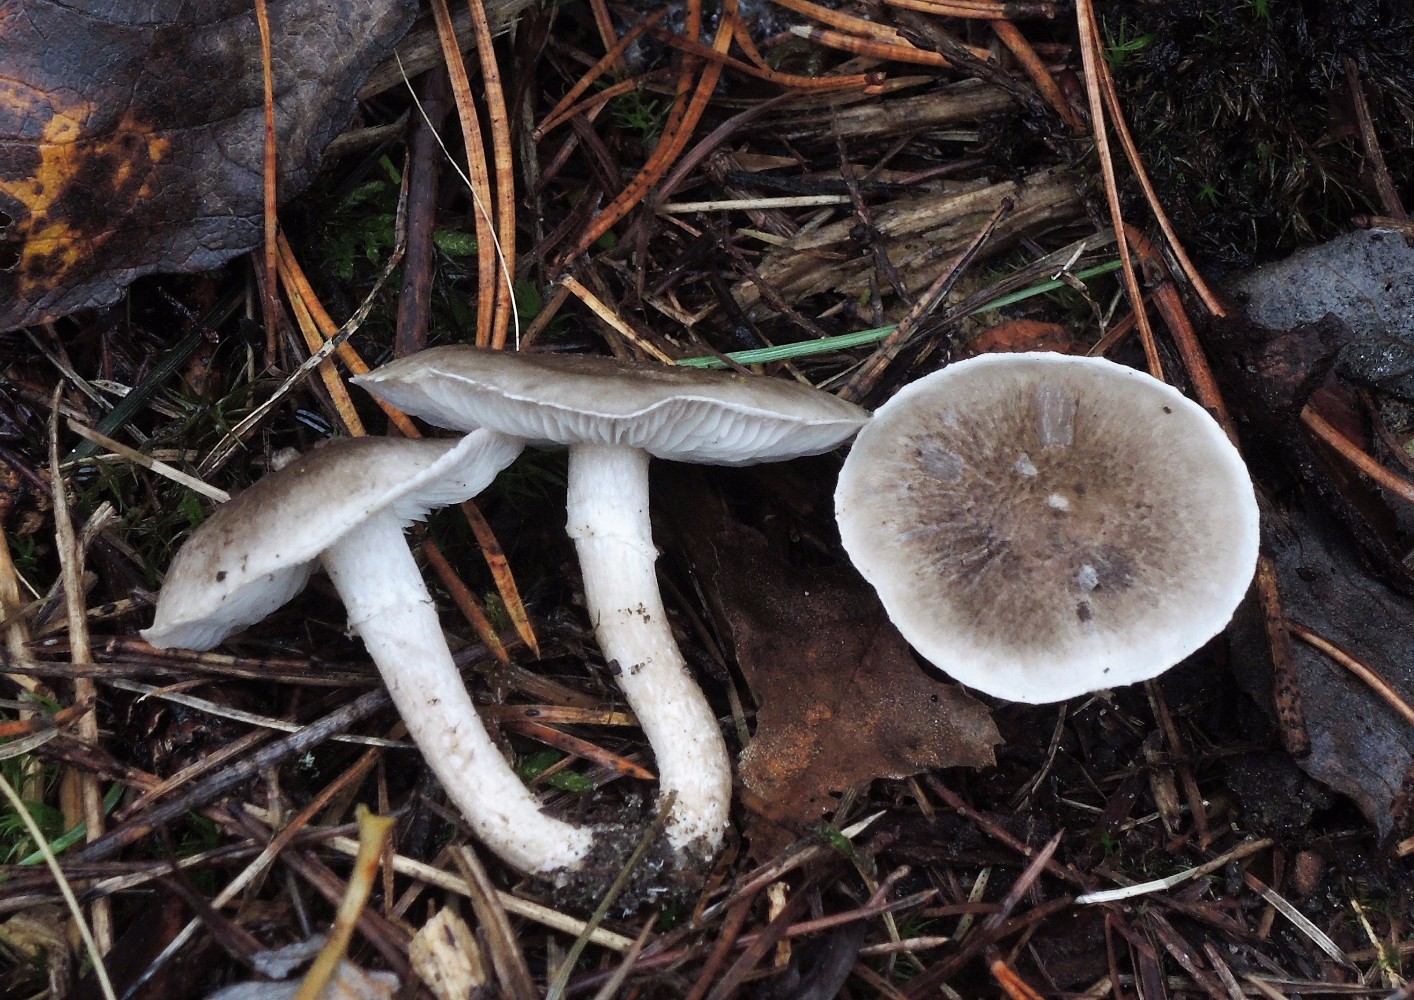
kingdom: Fungi
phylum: Basidiomycota
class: Agaricomycetes
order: Agaricales
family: Tricholomataceae
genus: Tricholoma
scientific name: Tricholoma cingulatum
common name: ring-ridderhat
